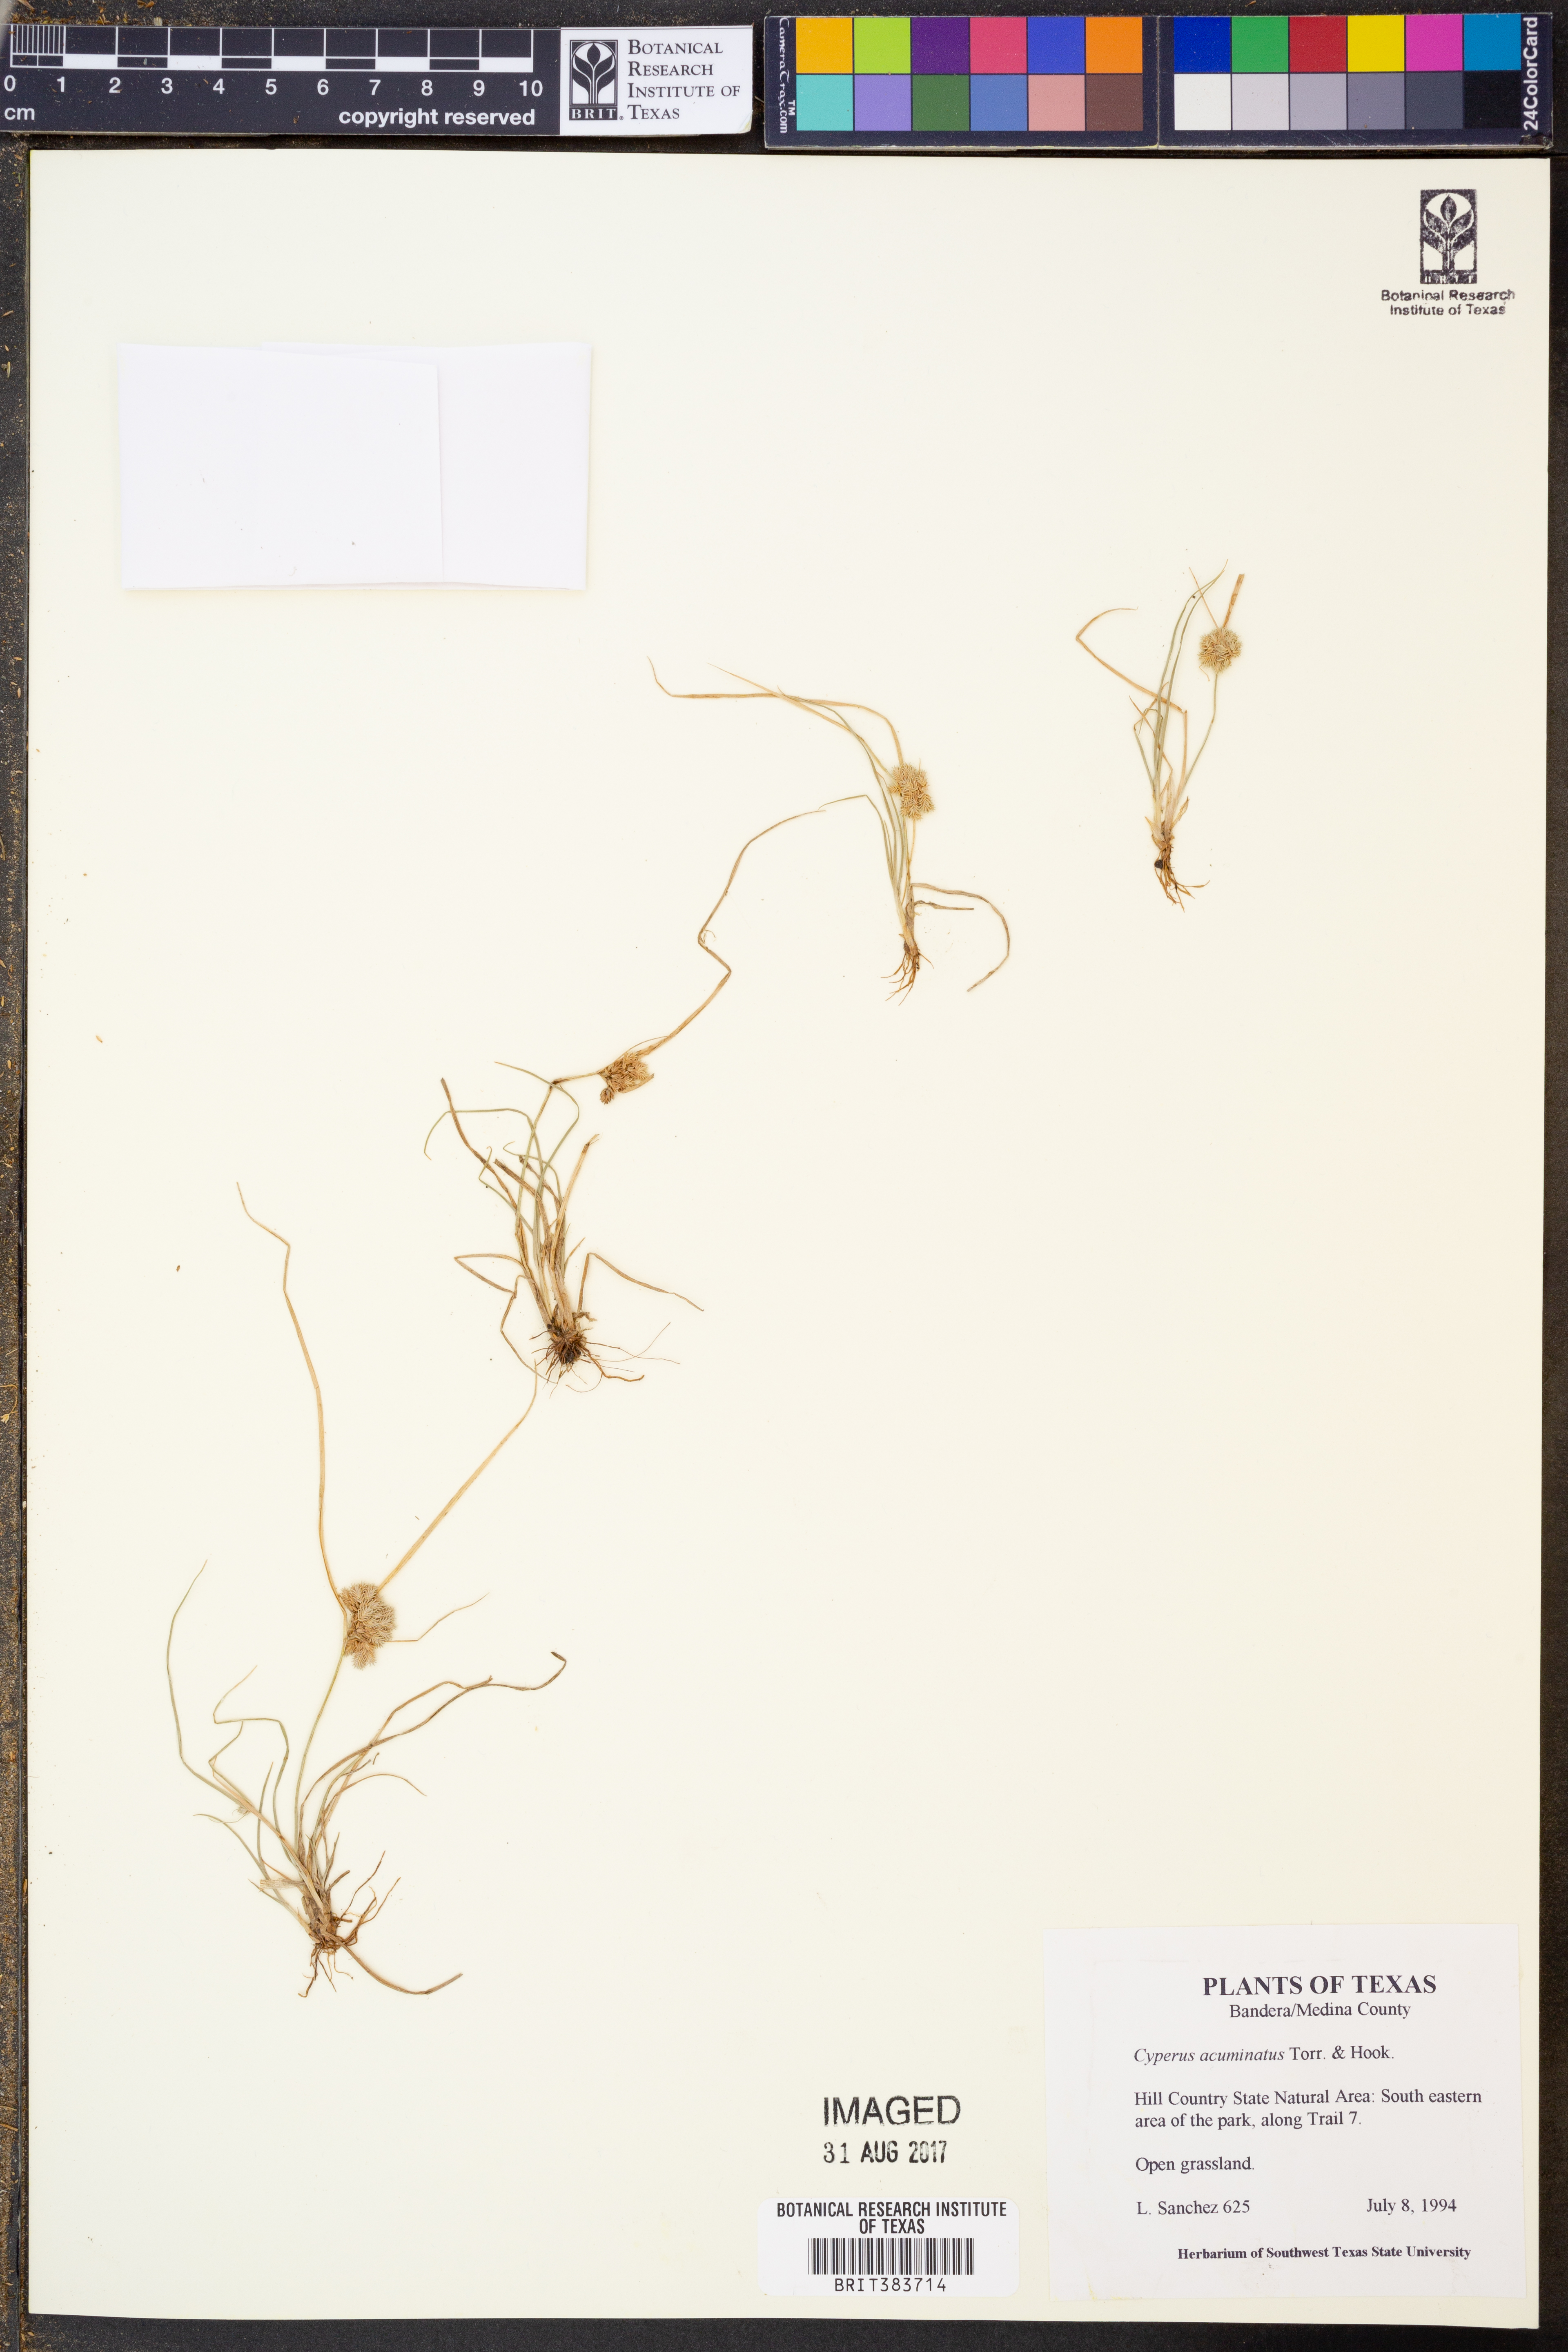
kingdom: Plantae
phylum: Tracheophyta
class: Liliopsida
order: Poales
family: Cyperaceae
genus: Cyperus
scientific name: Cyperus acuminatus
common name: Short-pointed cyperus
